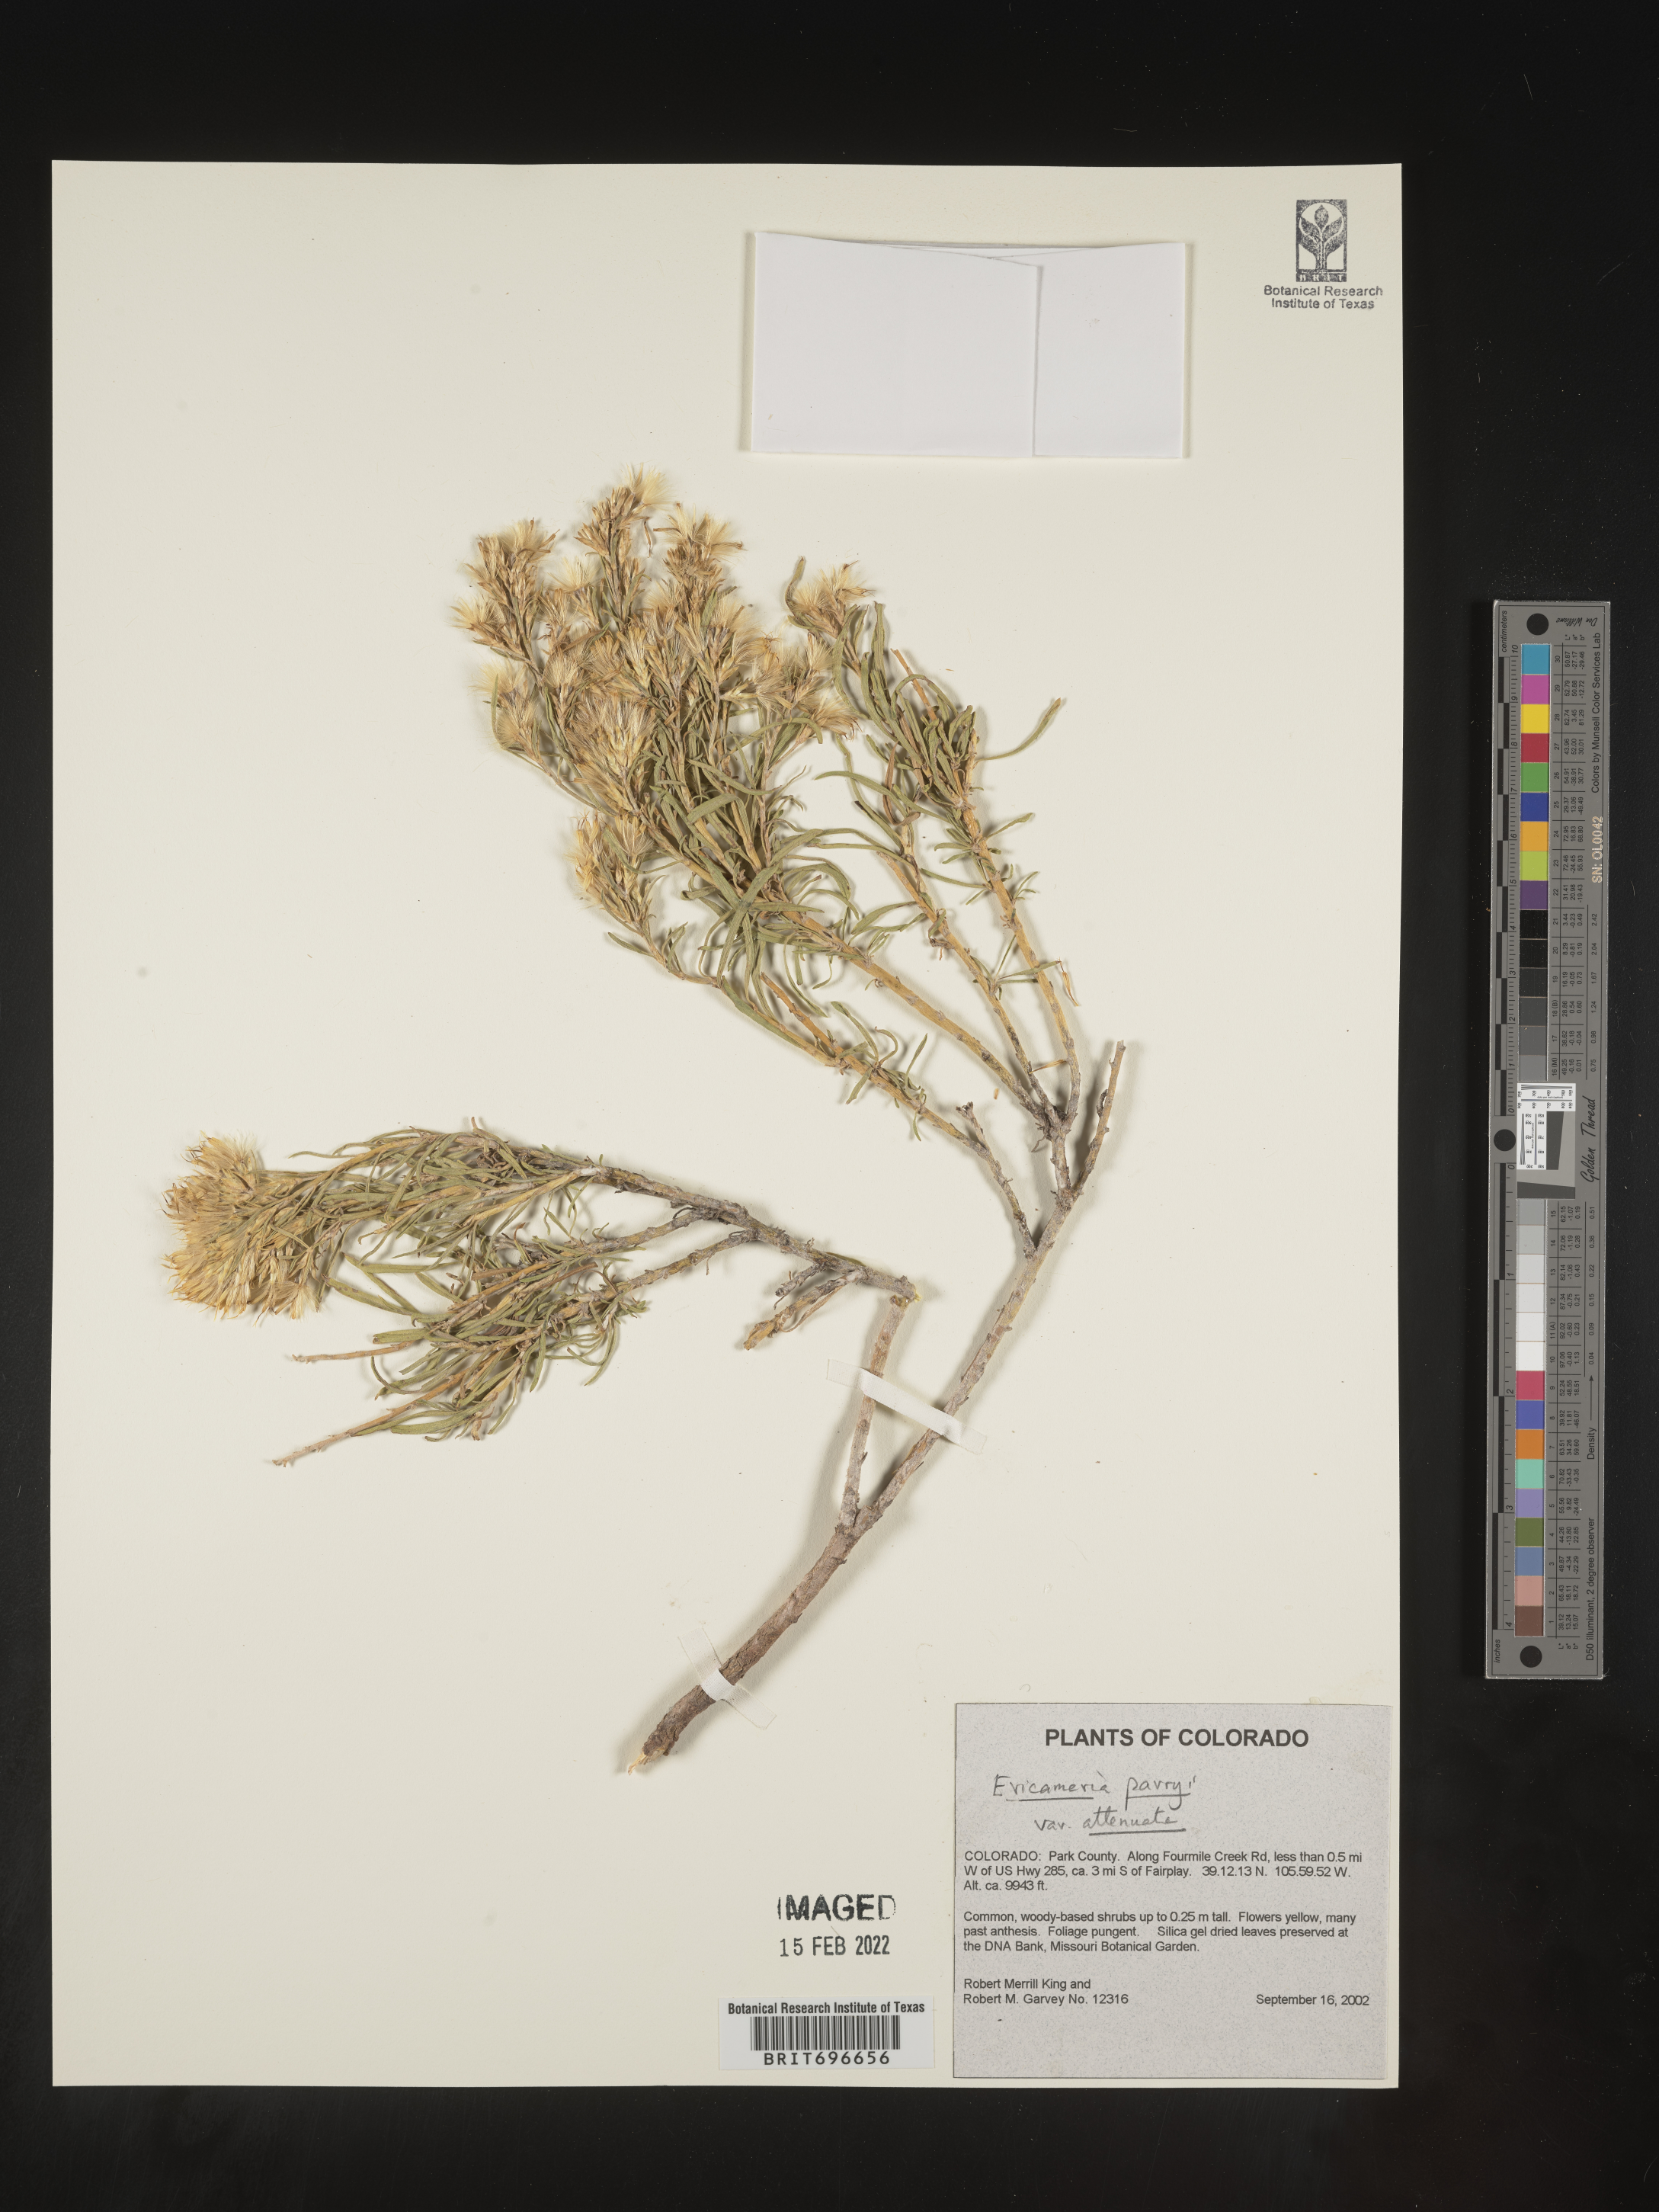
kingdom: Plantae
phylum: Tracheophyta
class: Magnoliopsida
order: Asterales
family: Asteraceae
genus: Ericameria
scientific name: Ericameria parryi
